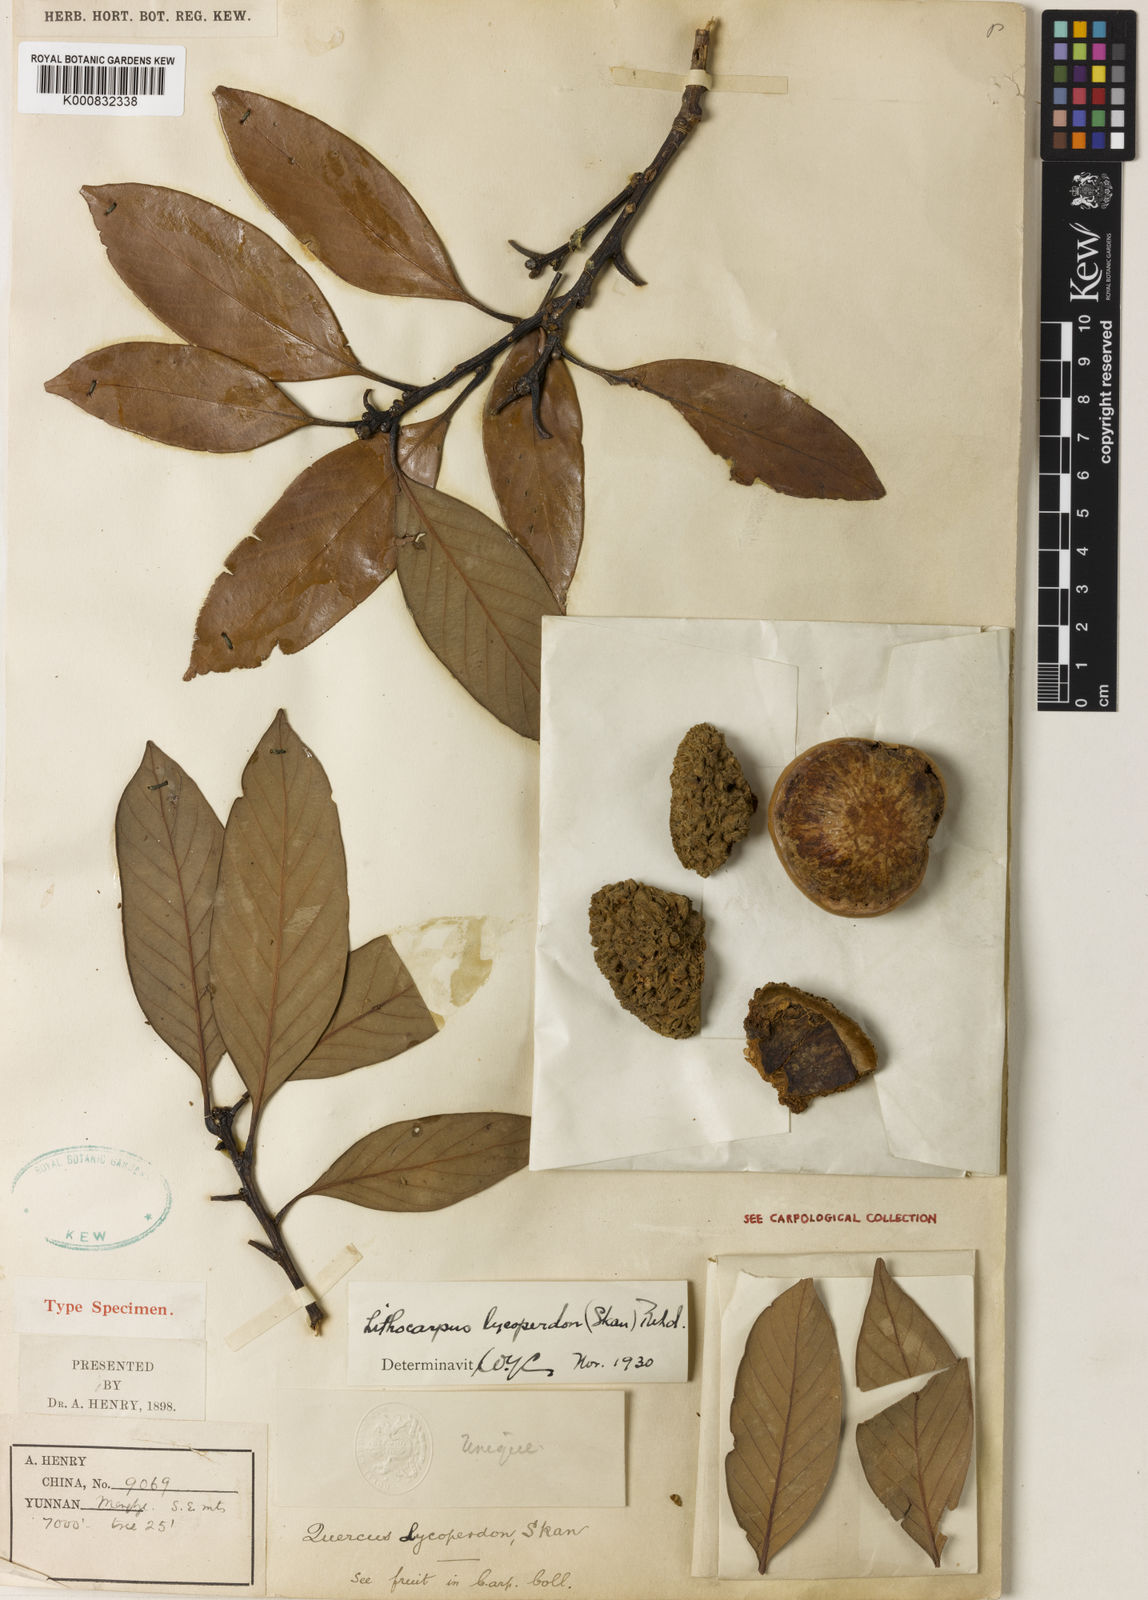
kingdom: Plantae
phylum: Tracheophyta
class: Magnoliopsida
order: Fagales
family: Fagaceae
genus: Lithocarpus
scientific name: Lithocarpus lycoperdon
